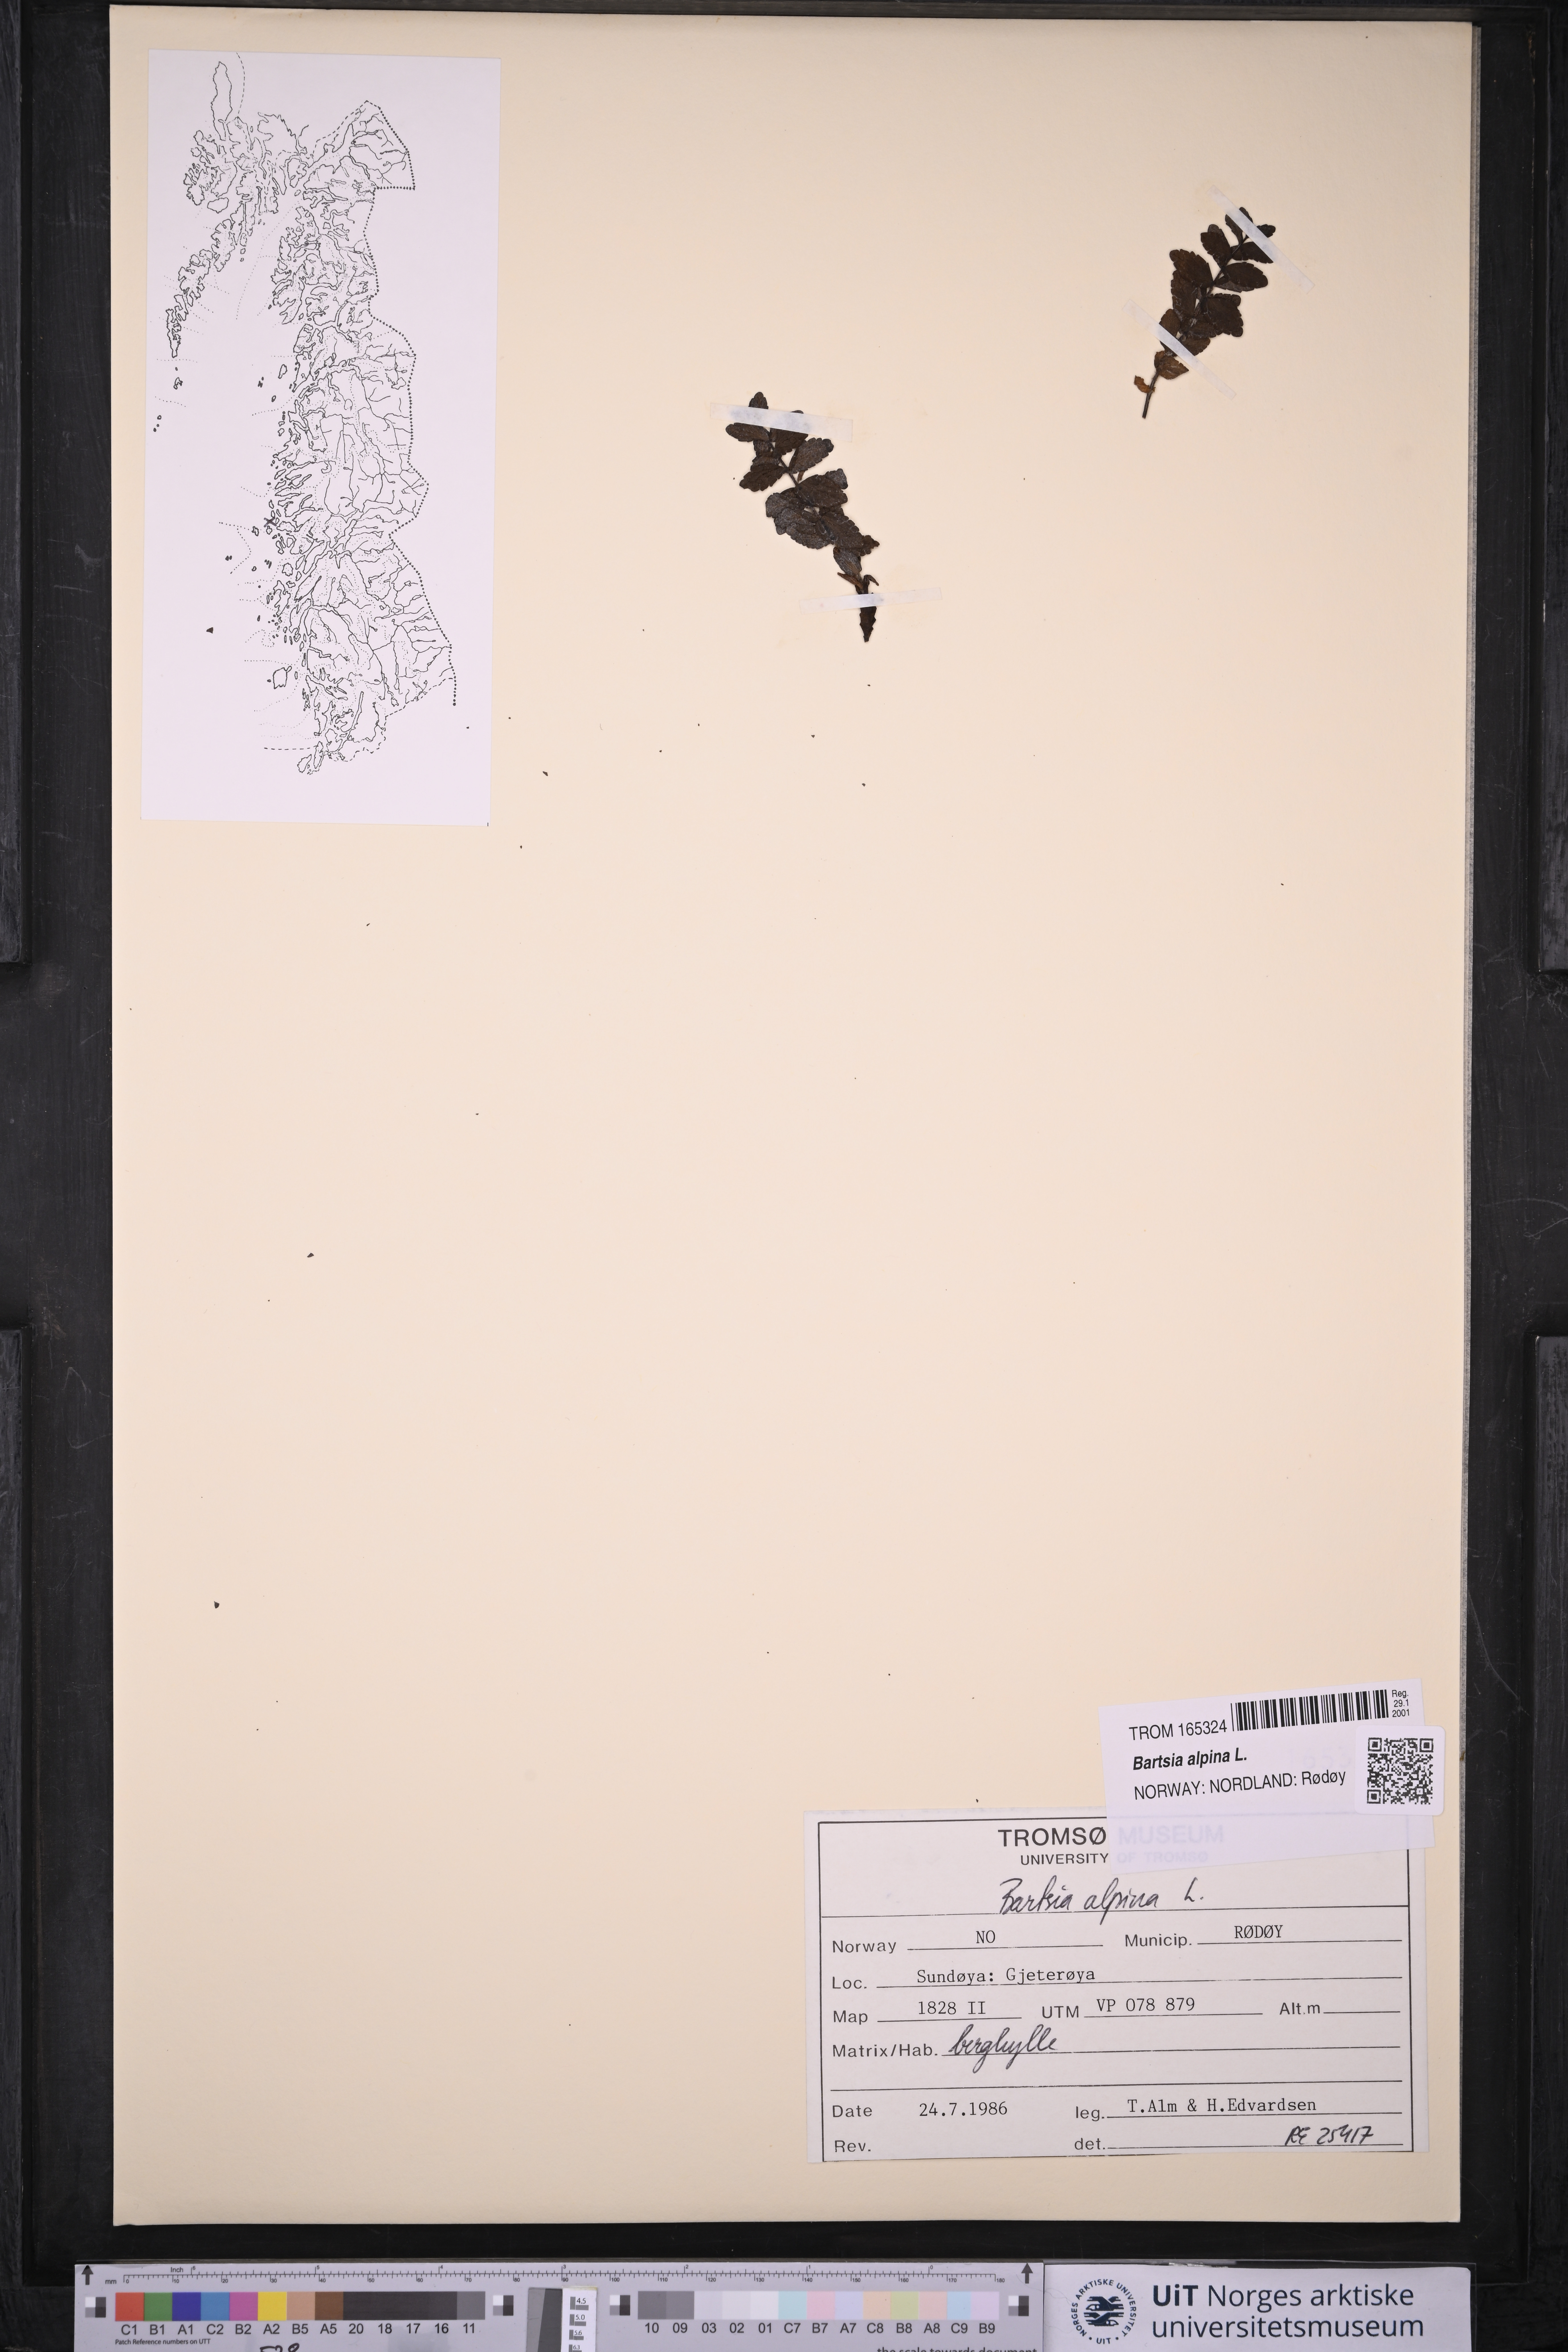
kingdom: Plantae
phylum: Tracheophyta
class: Magnoliopsida
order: Lamiales
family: Orobanchaceae
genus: Bartsia
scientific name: Bartsia alpina
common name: Alpine bartsia
